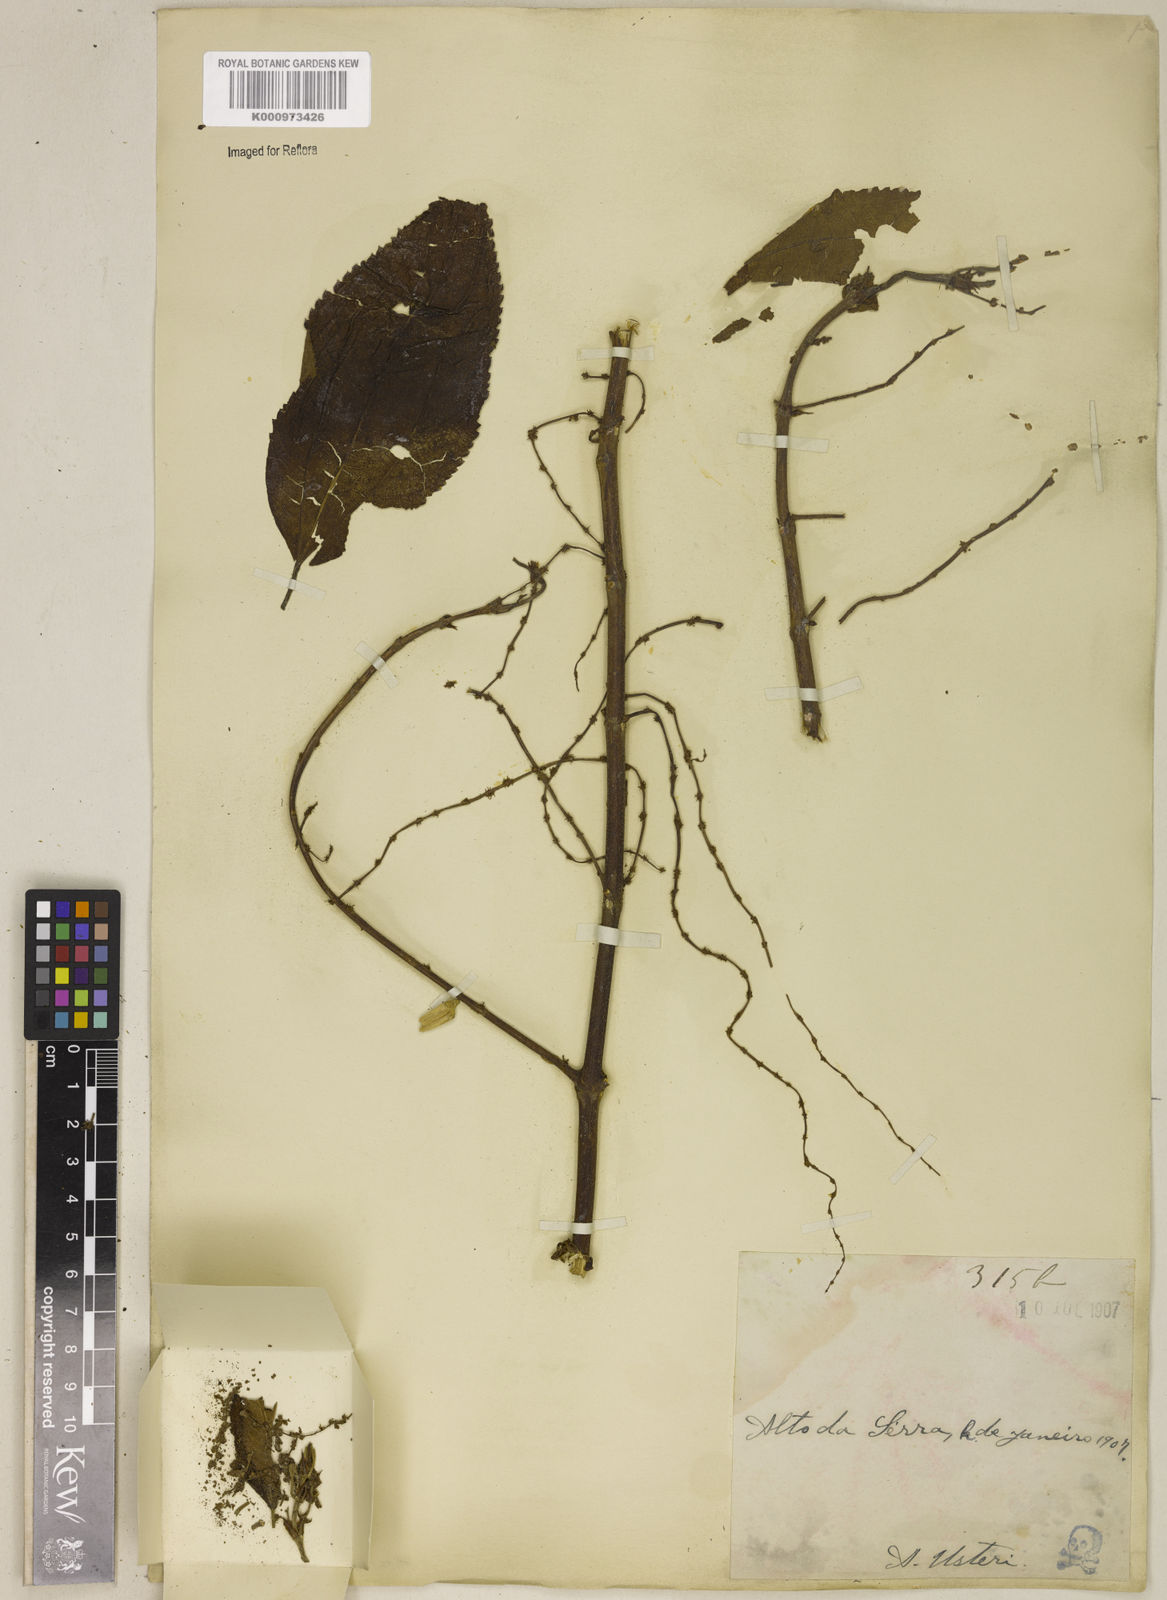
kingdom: Plantae
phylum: Tracheophyta
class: Magnoliopsida
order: Rosales
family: Urticaceae
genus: Boehmeria
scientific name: Boehmeria caudata
